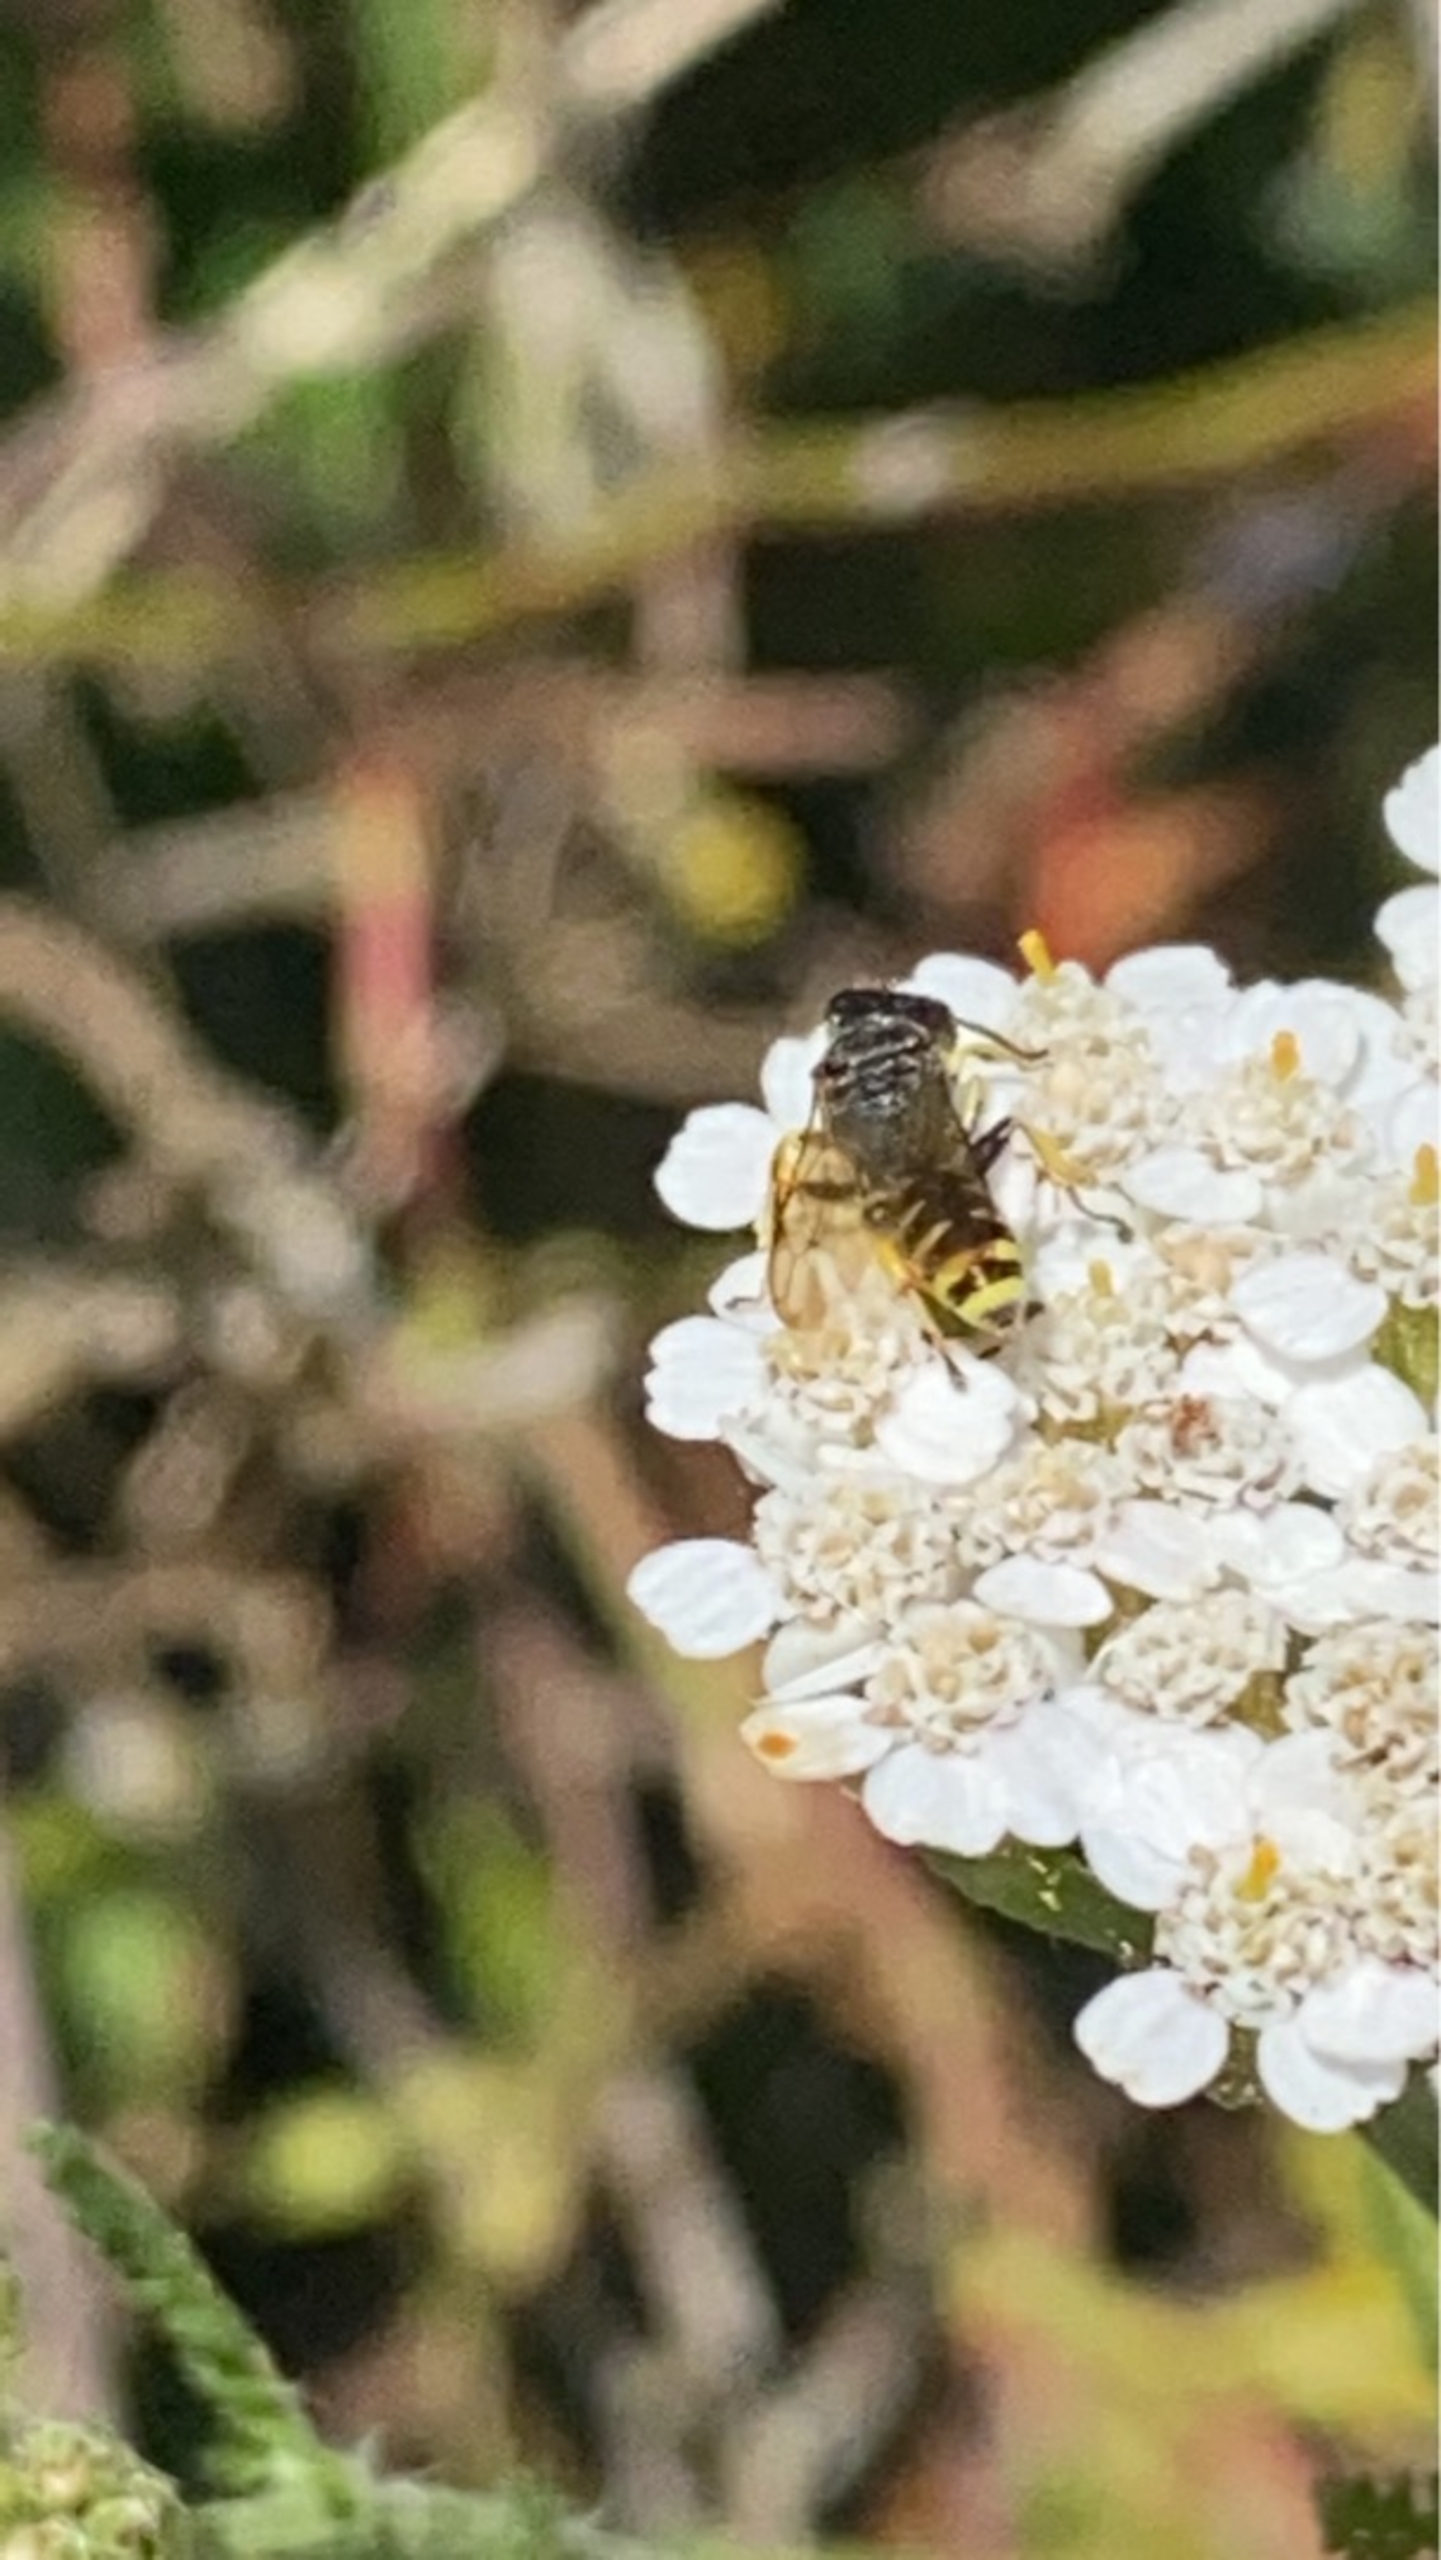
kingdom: Animalia
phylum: Arthropoda
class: Insecta
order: Hymenoptera
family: Crabronidae
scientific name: Crabronidae
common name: Gravehvepse
